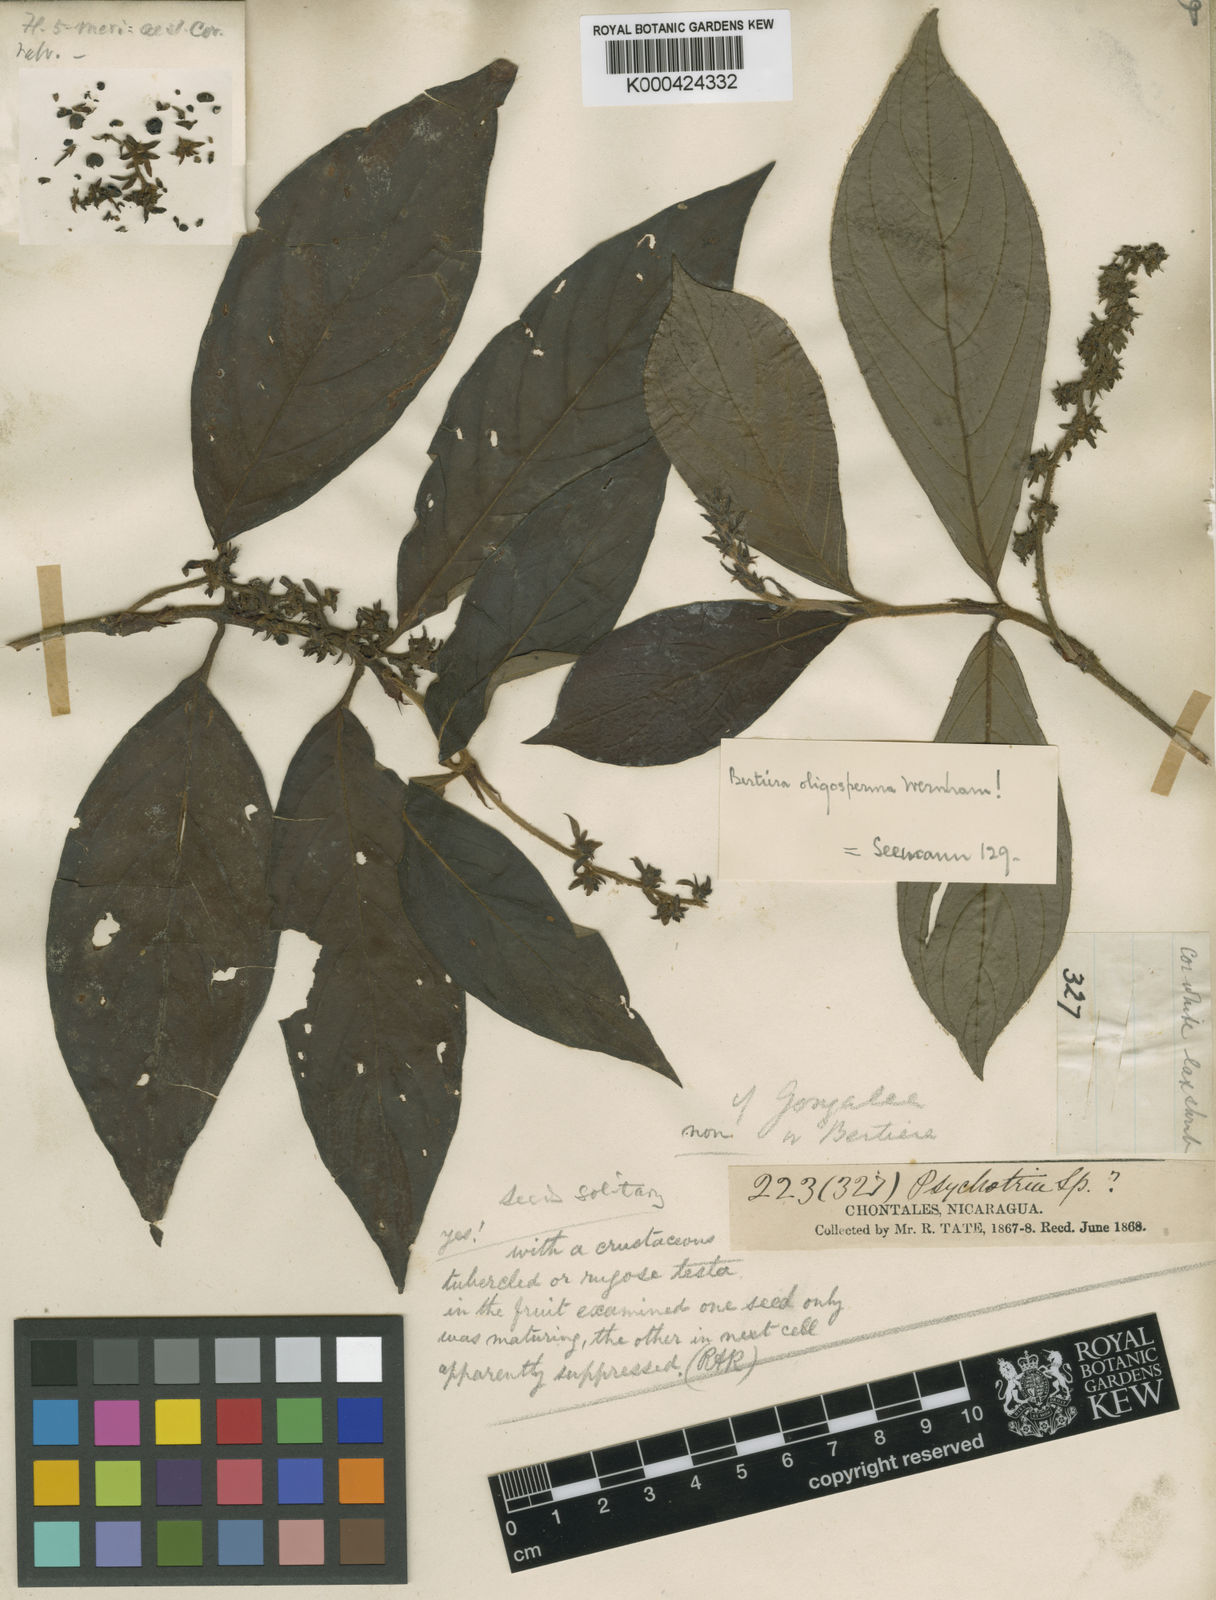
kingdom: Plantae
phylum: Tracheophyta
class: Magnoliopsida
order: Gentianales
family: Rubiaceae
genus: Bertiera
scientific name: Bertiera bracteosa
